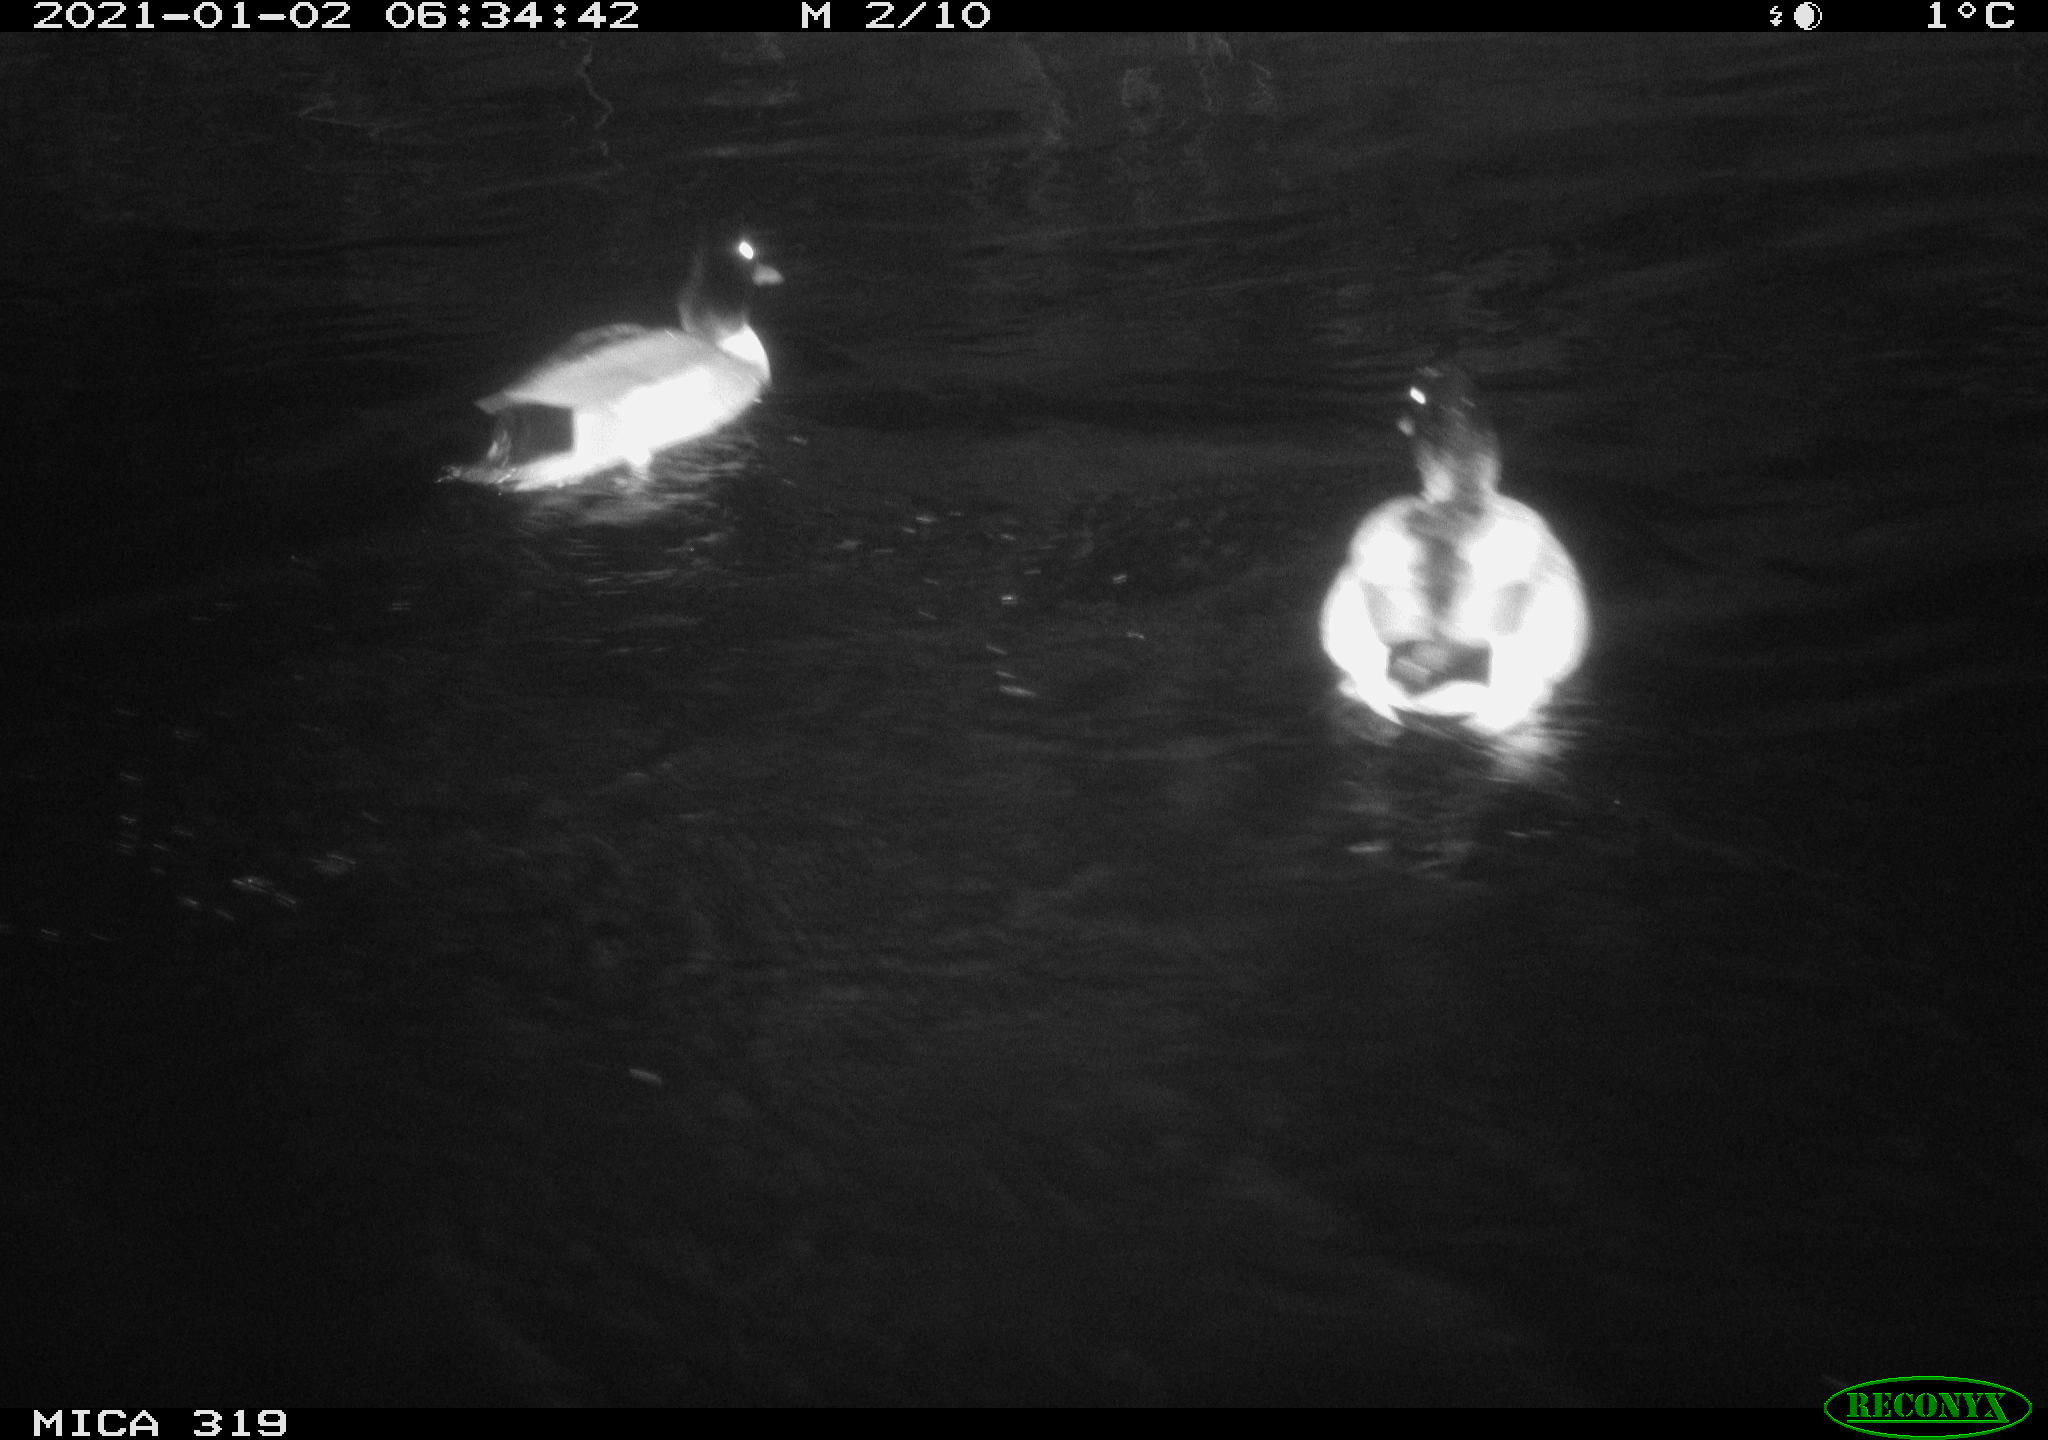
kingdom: Animalia
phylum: Chordata
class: Aves
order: Anseriformes
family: Anatidae
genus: Anas
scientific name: Anas platyrhynchos
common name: Mallard
